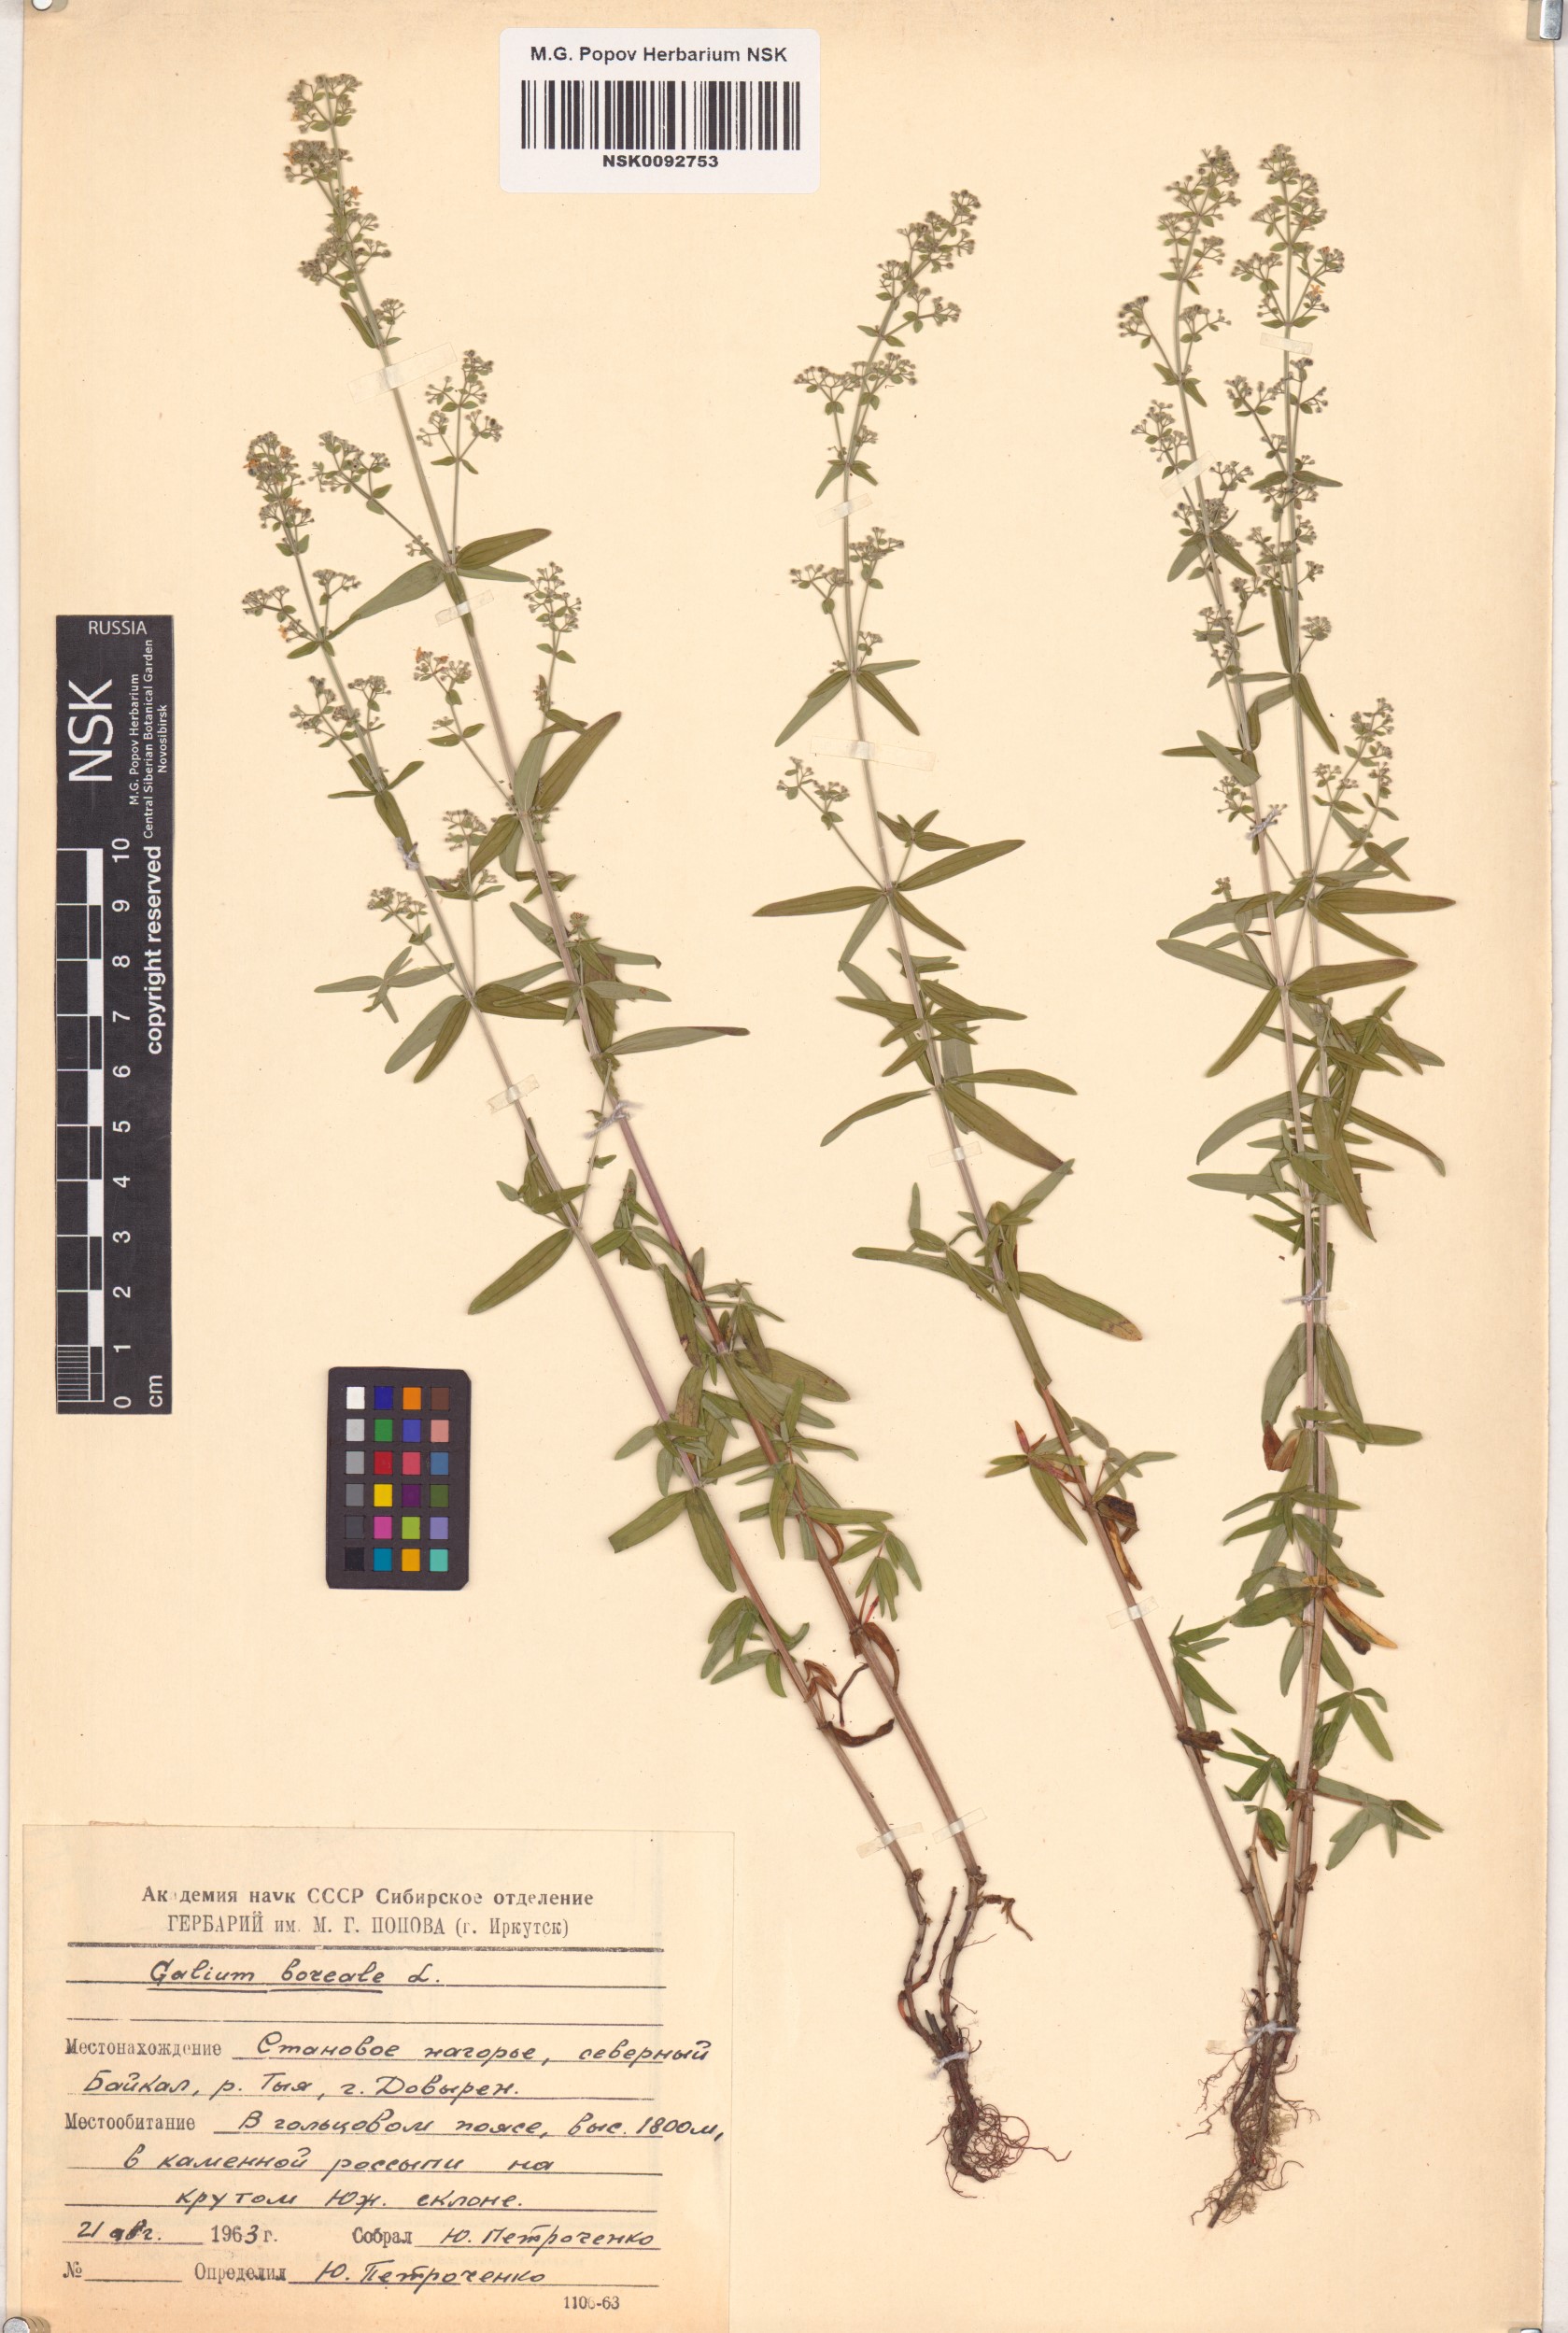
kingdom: Plantae
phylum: Tracheophyta
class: Magnoliopsida
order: Gentianales
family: Rubiaceae
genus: Galium
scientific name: Galium boreale
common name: Northern bedstraw
